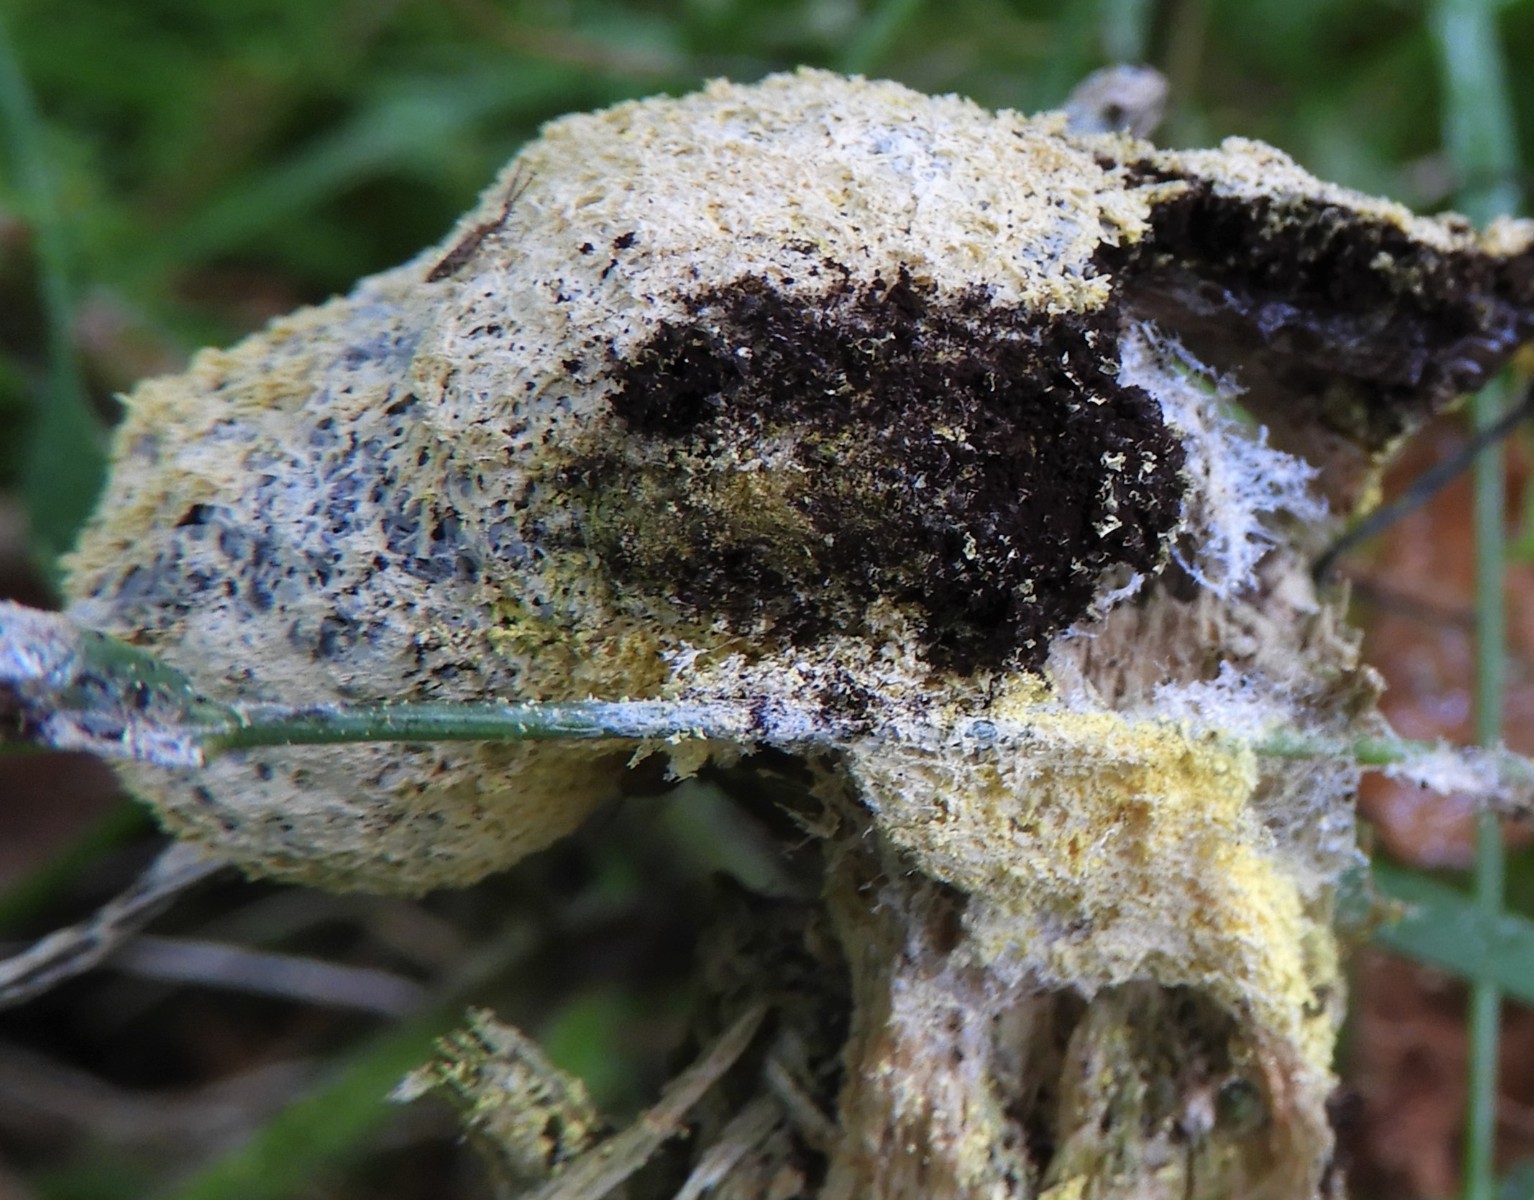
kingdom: Protozoa
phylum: Mycetozoa
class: Myxomycetes
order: Physarales
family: Physaraceae
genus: Fuligo
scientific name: Fuligo septica
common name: gul troldsmør
